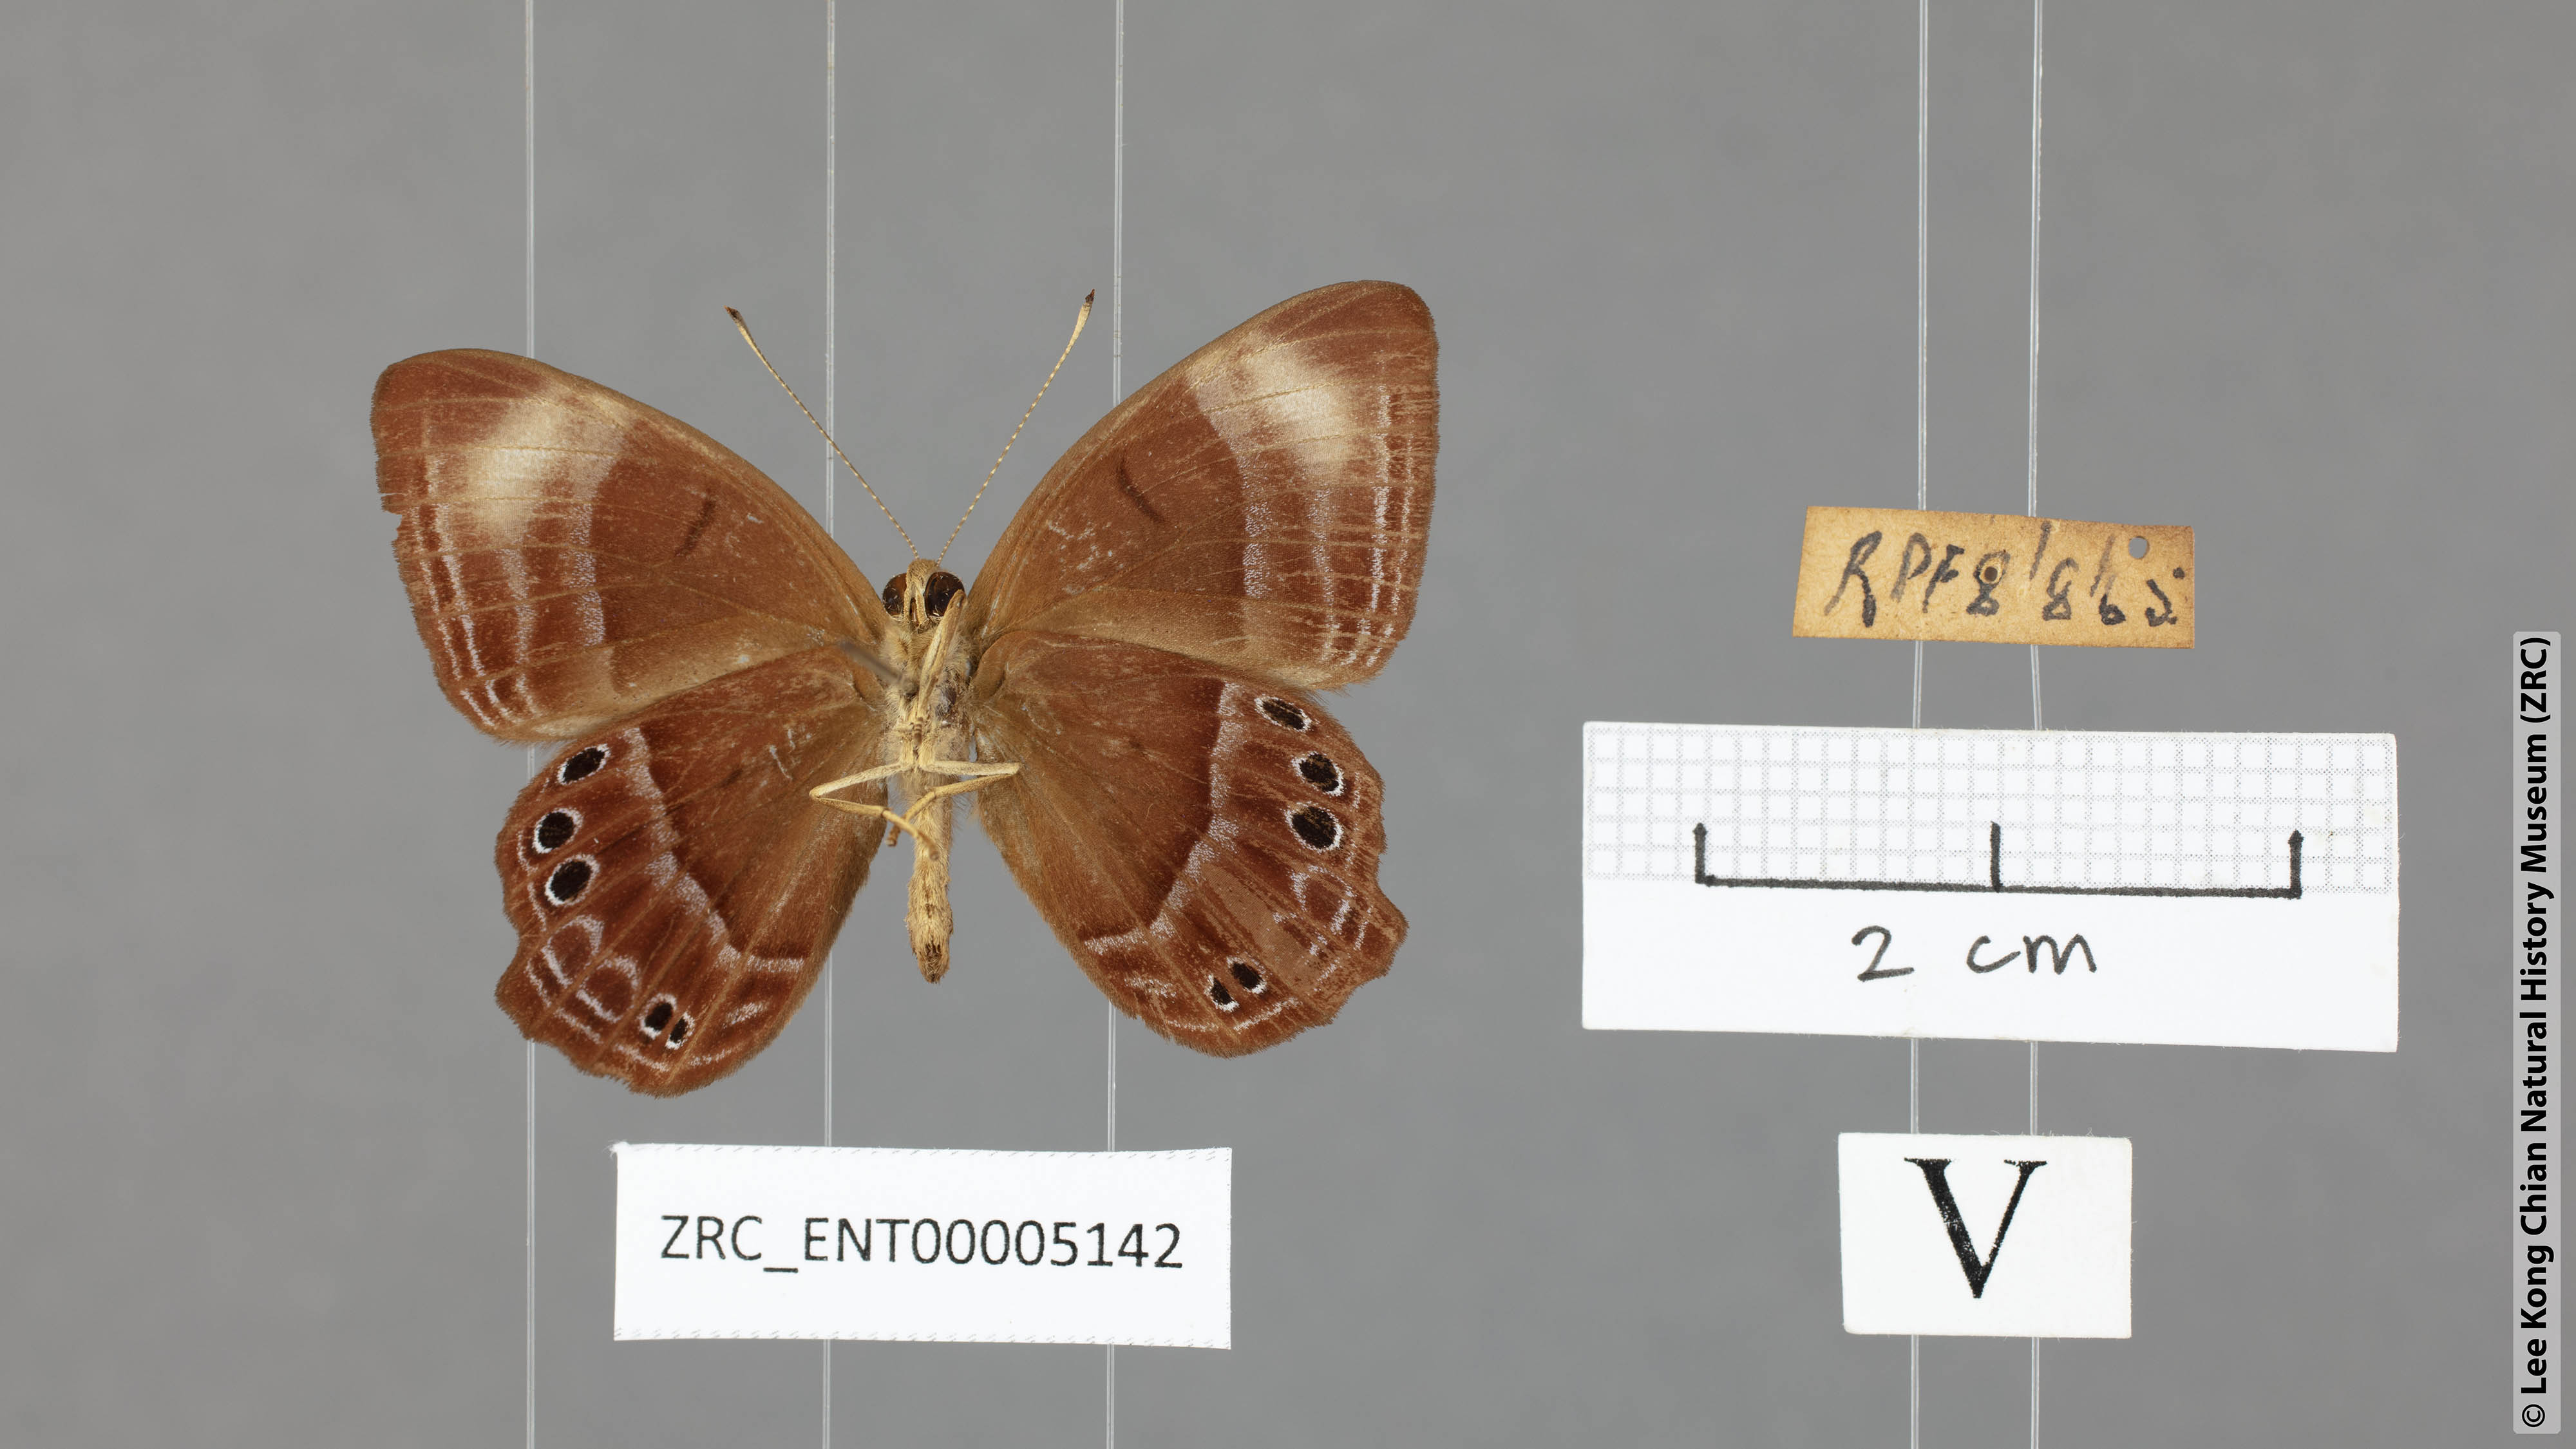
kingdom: Animalia
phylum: Arthropoda
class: Insecta
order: Lepidoptera
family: Lycaenidae
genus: Abisara
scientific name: Abisara geza
